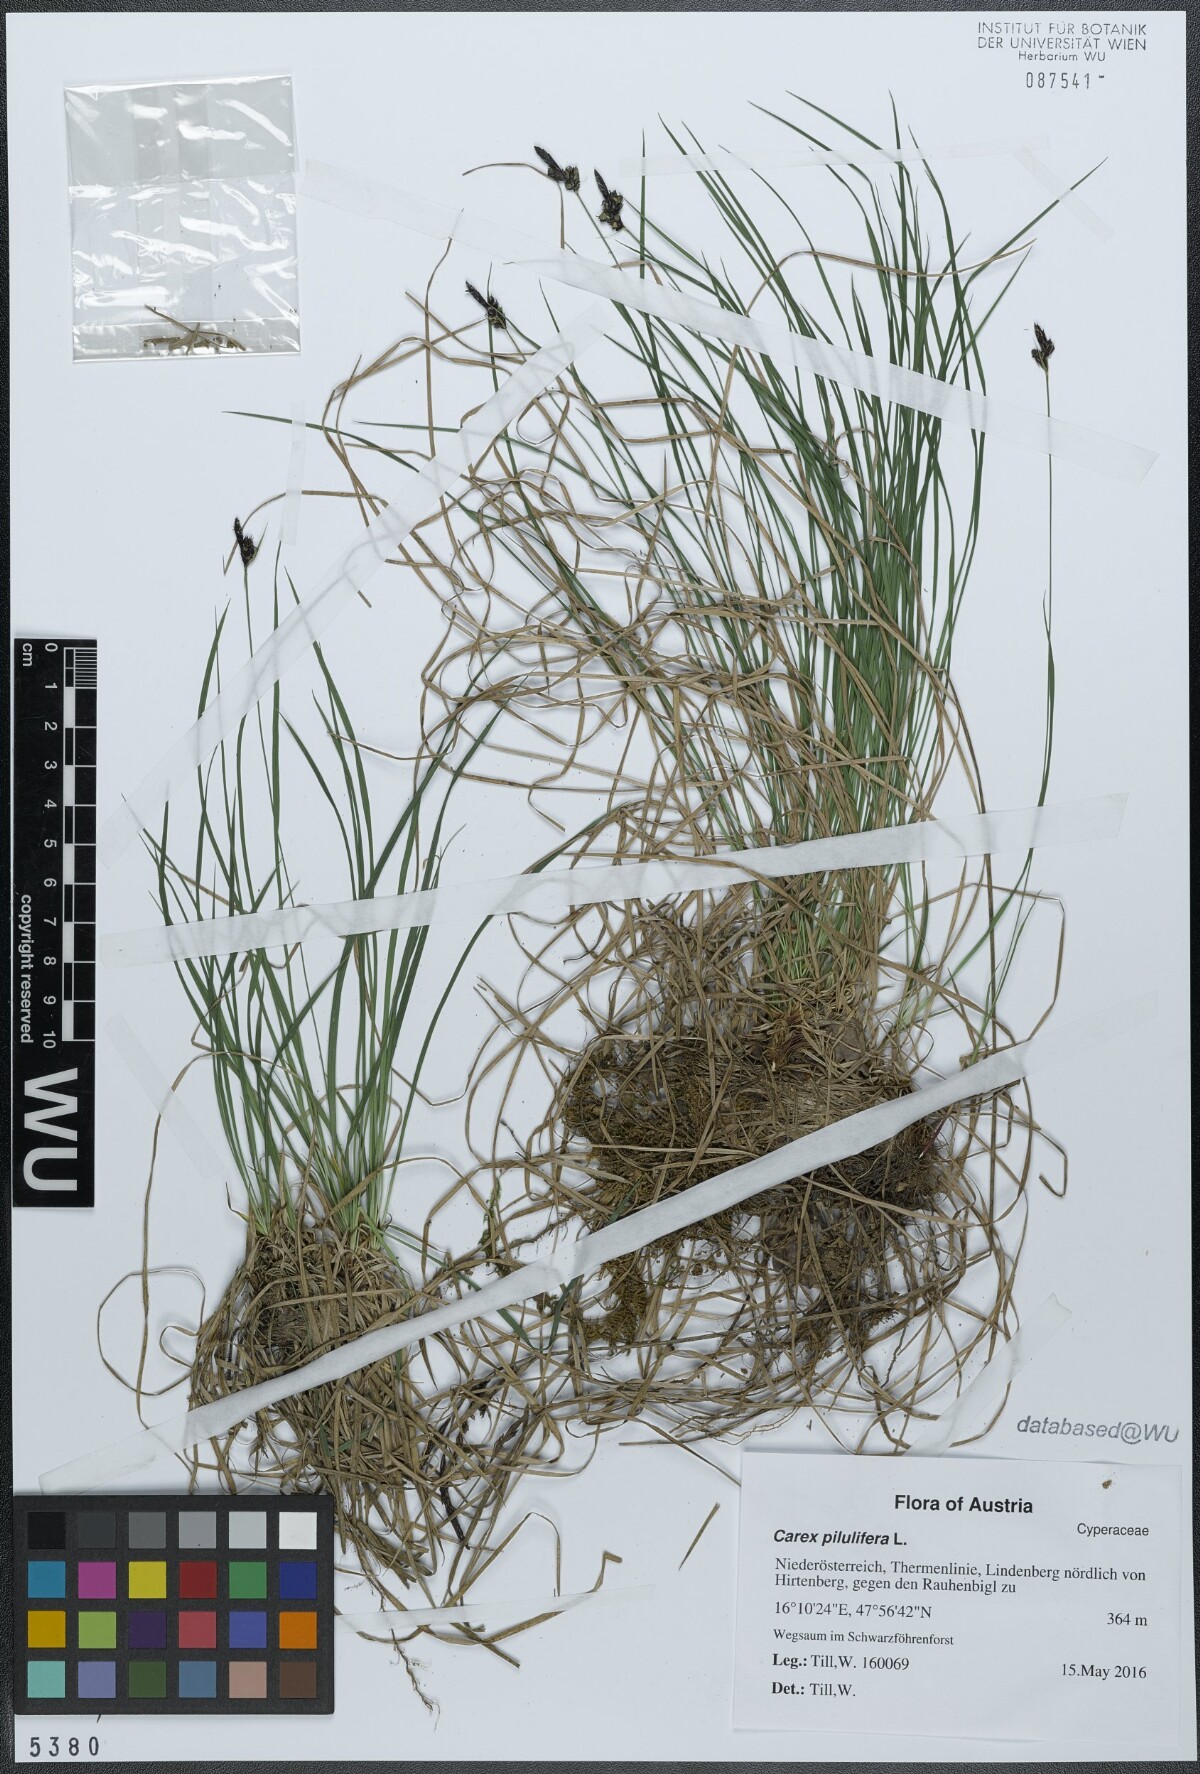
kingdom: Plantae
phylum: Tracheophyta
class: Liliopsida
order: Poales
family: Cyperaceae
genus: Carex
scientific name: Carex pilulifera
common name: Pill sedge
